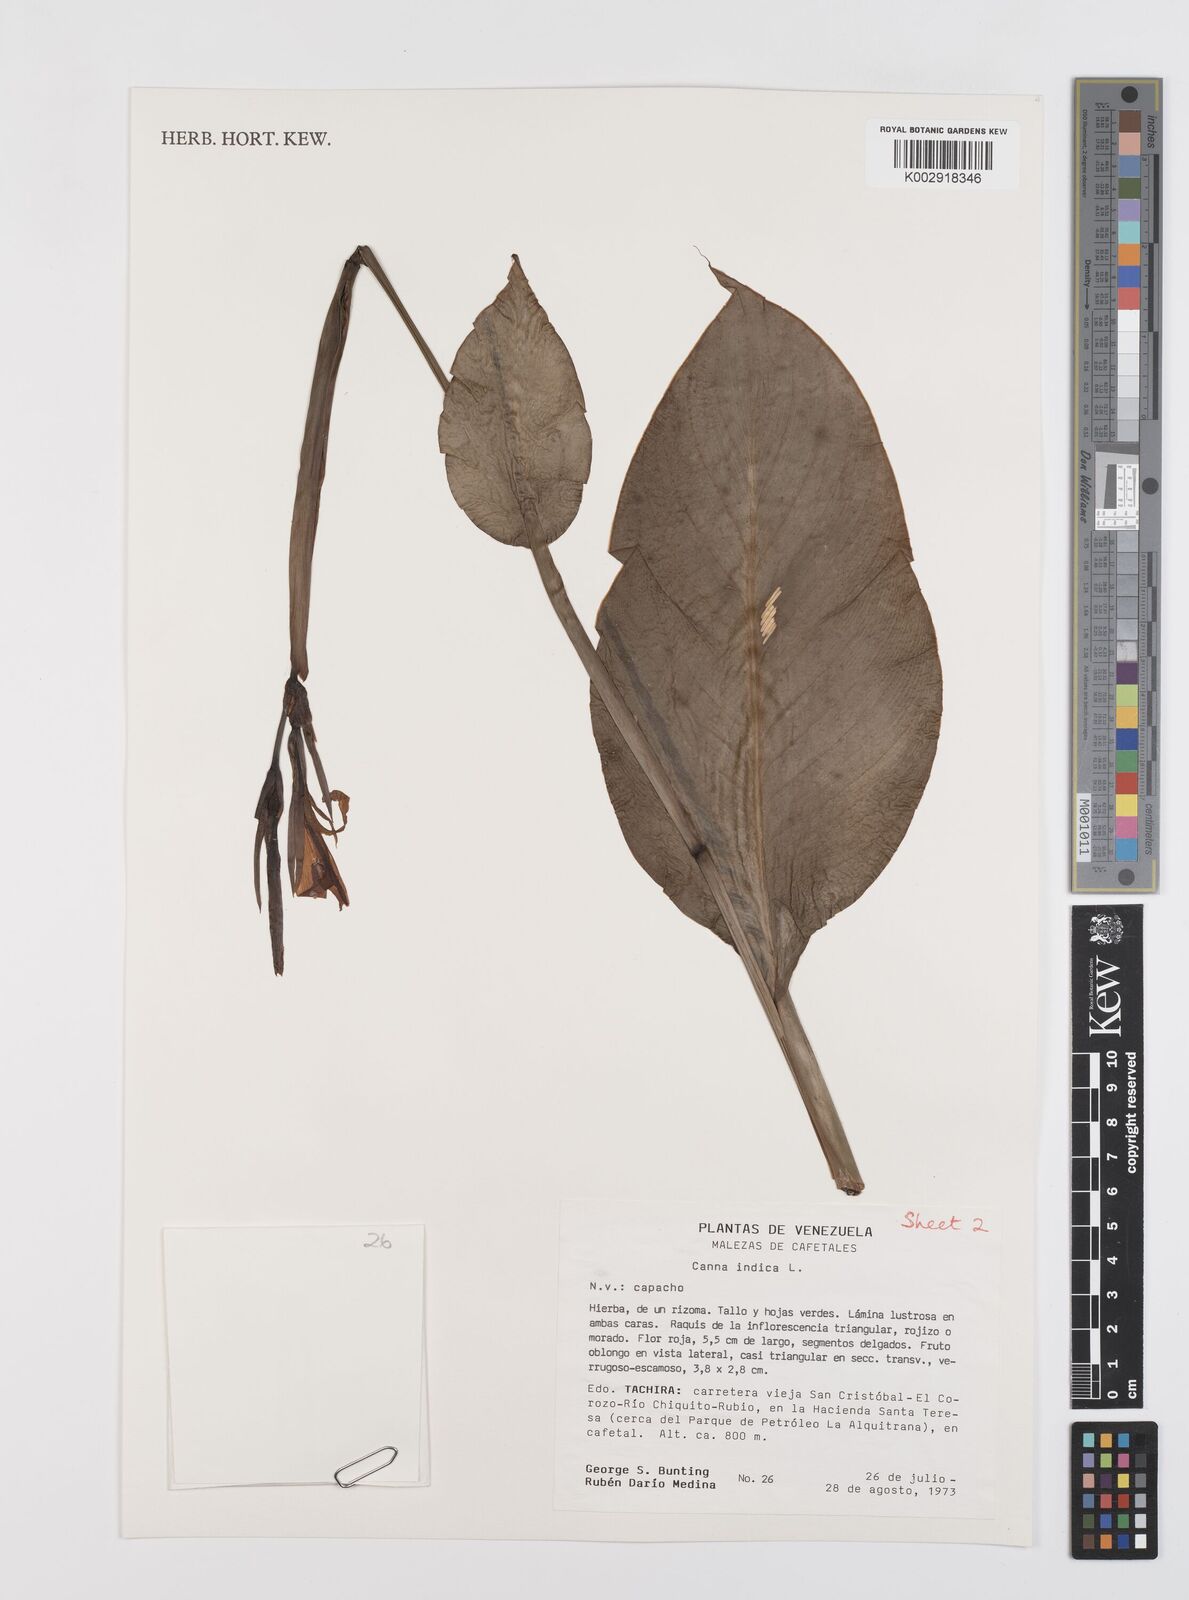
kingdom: Plantae
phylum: Tracheophyta
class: Liliopsida
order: Zingiberales
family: Cannaceae
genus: Canna
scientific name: Canna indica
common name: Indian shot
